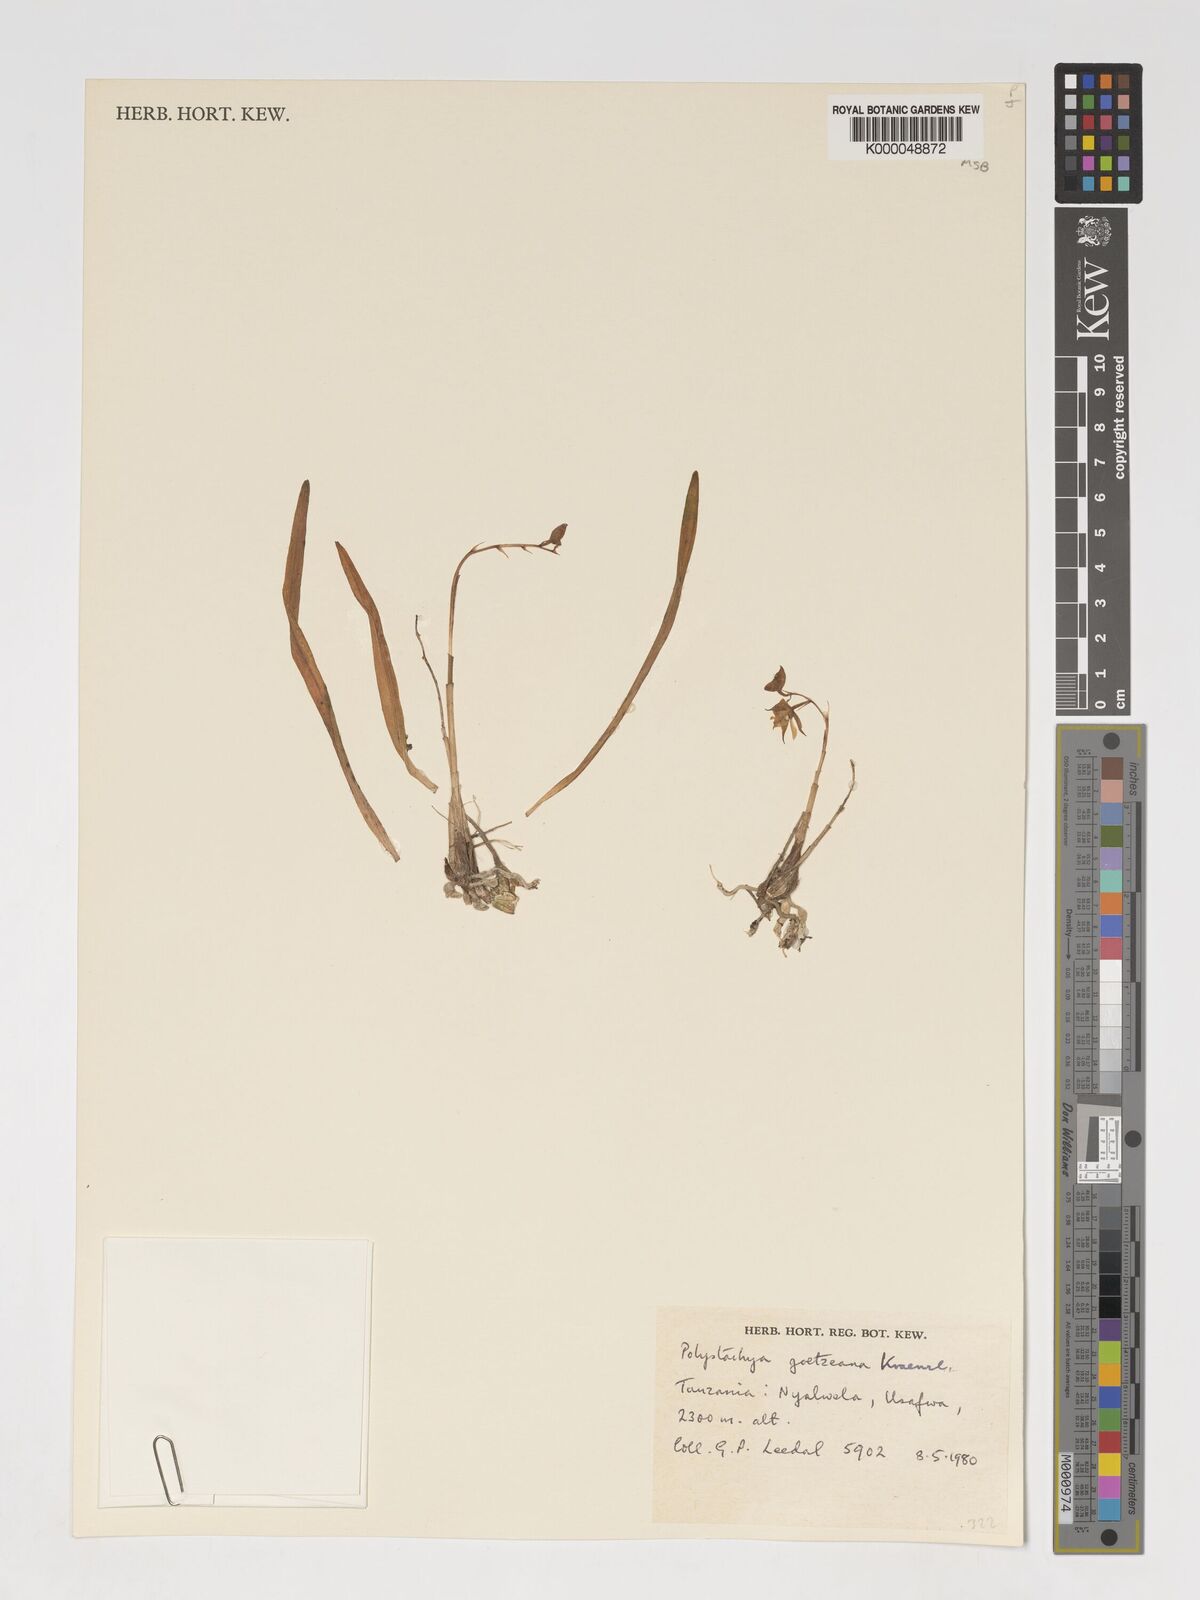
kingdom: Plantae
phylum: Tracheophyta
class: Liliopsida
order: Asparagales
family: Orchidaceae
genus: Polystachya
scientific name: Polystachya goetzeana
